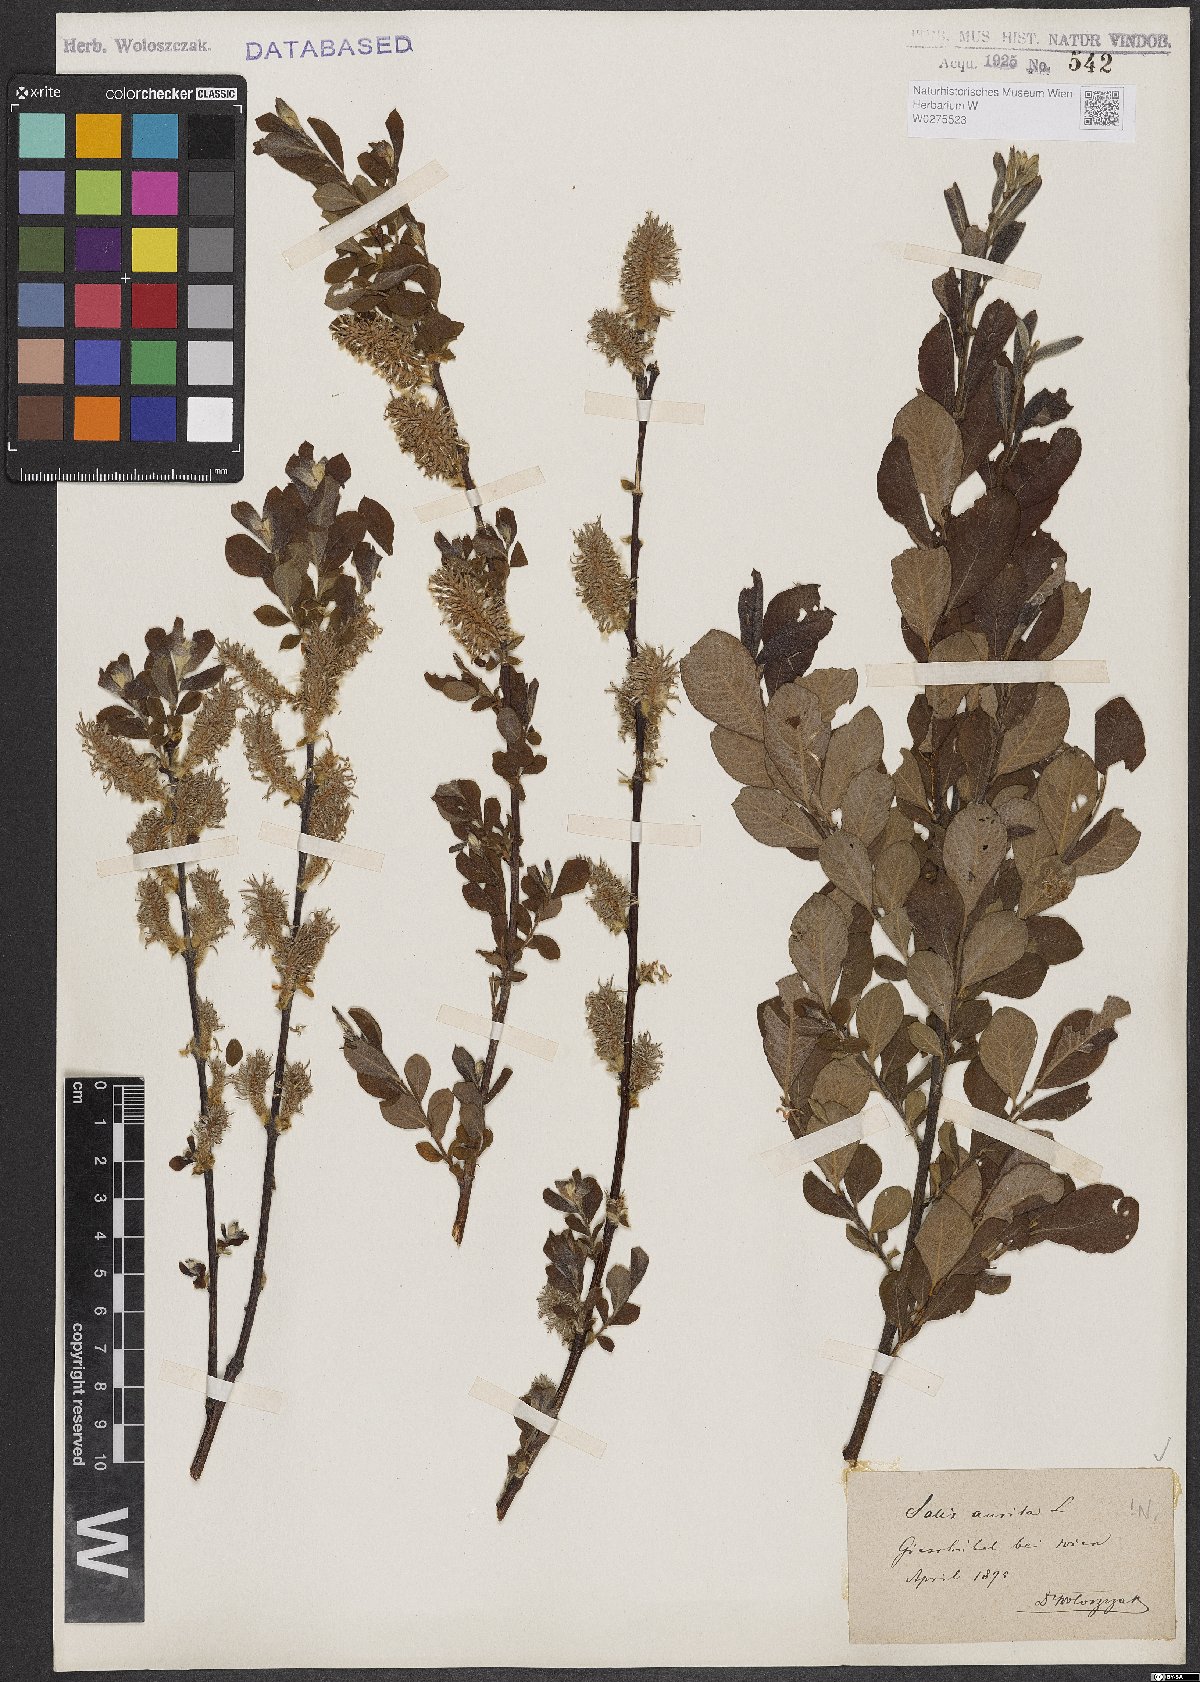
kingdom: Plantae
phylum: Tracheophyta
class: Magnoliopsida
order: Malpighiales
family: Salicaceae
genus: Salix
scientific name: Salix aurita
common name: Eared willow
